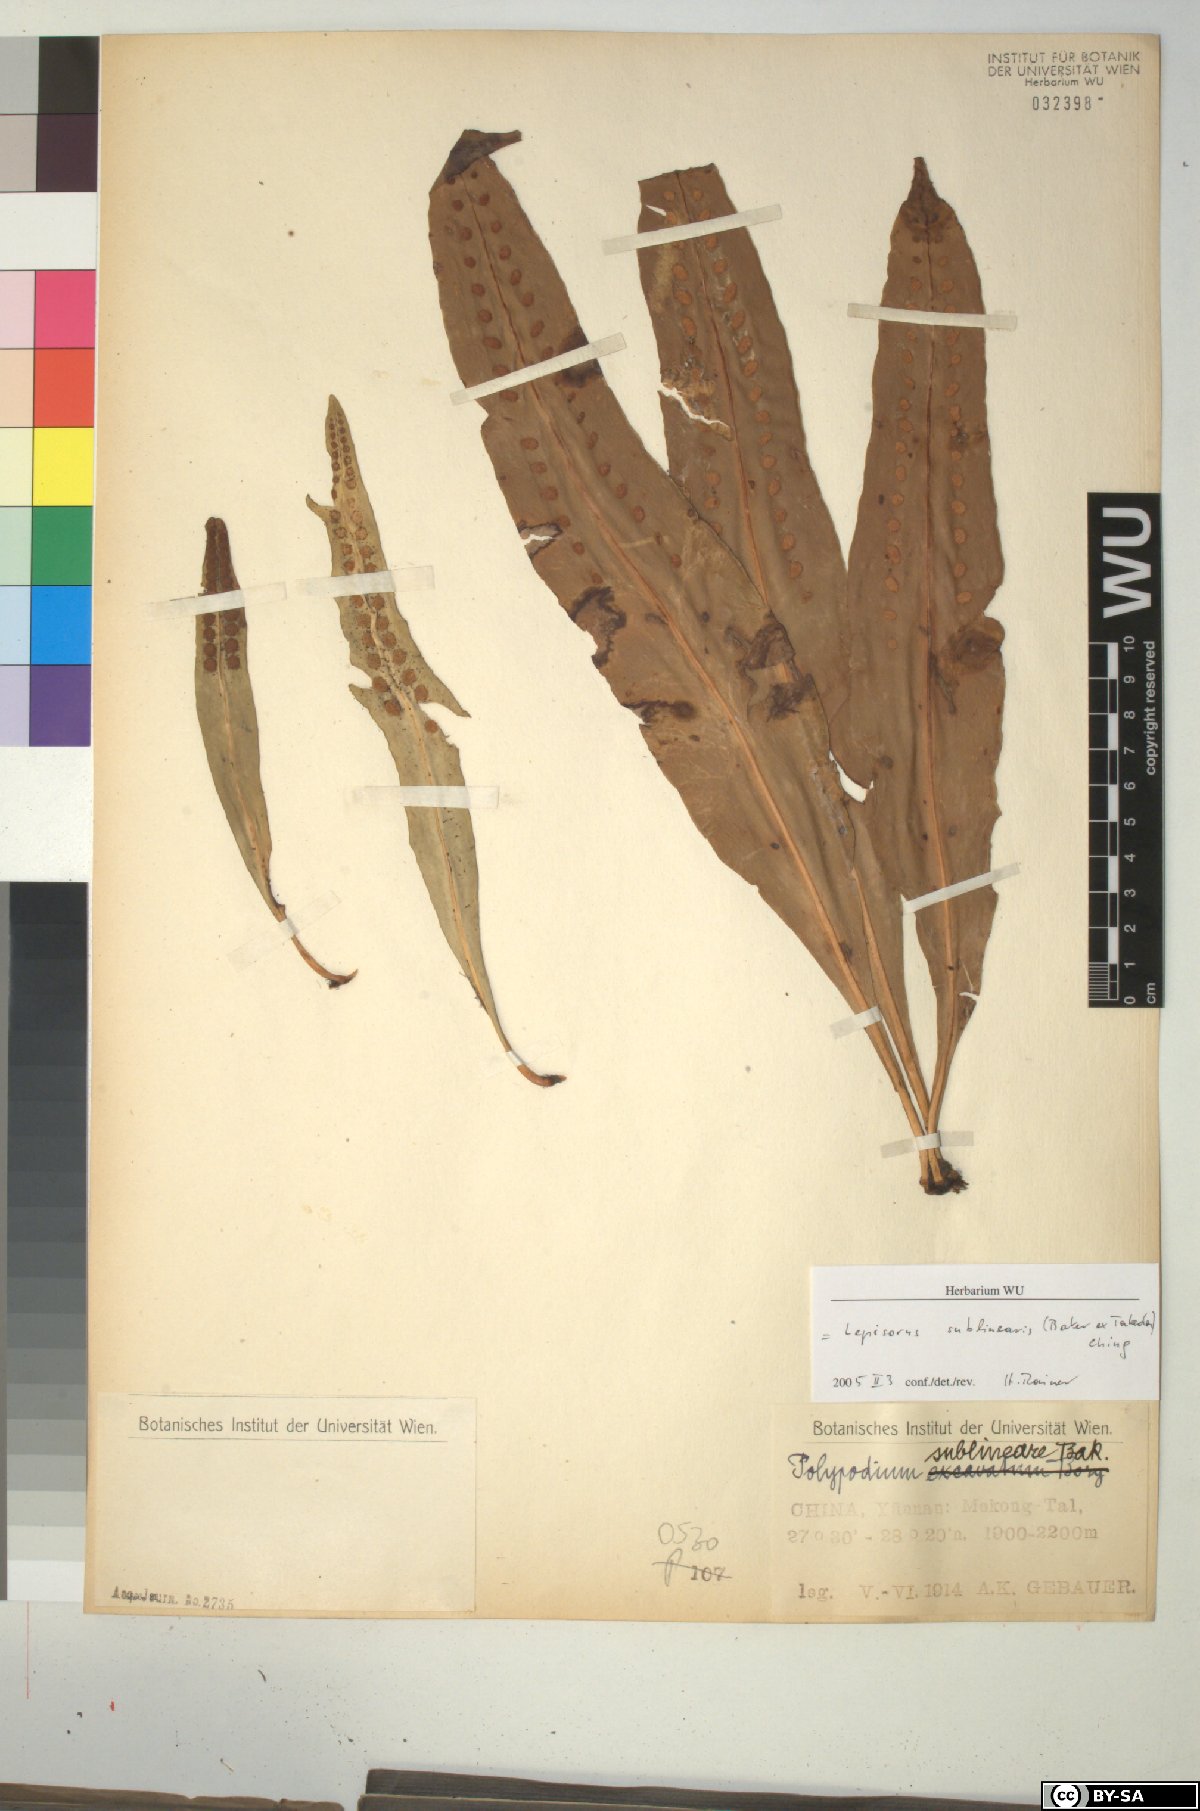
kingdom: Plantae
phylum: Tracheophyta
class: Polypodiopsida
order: Polypodiales
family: Polypodiaceae
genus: Lepisorus
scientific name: Lepisorus sublinearis
